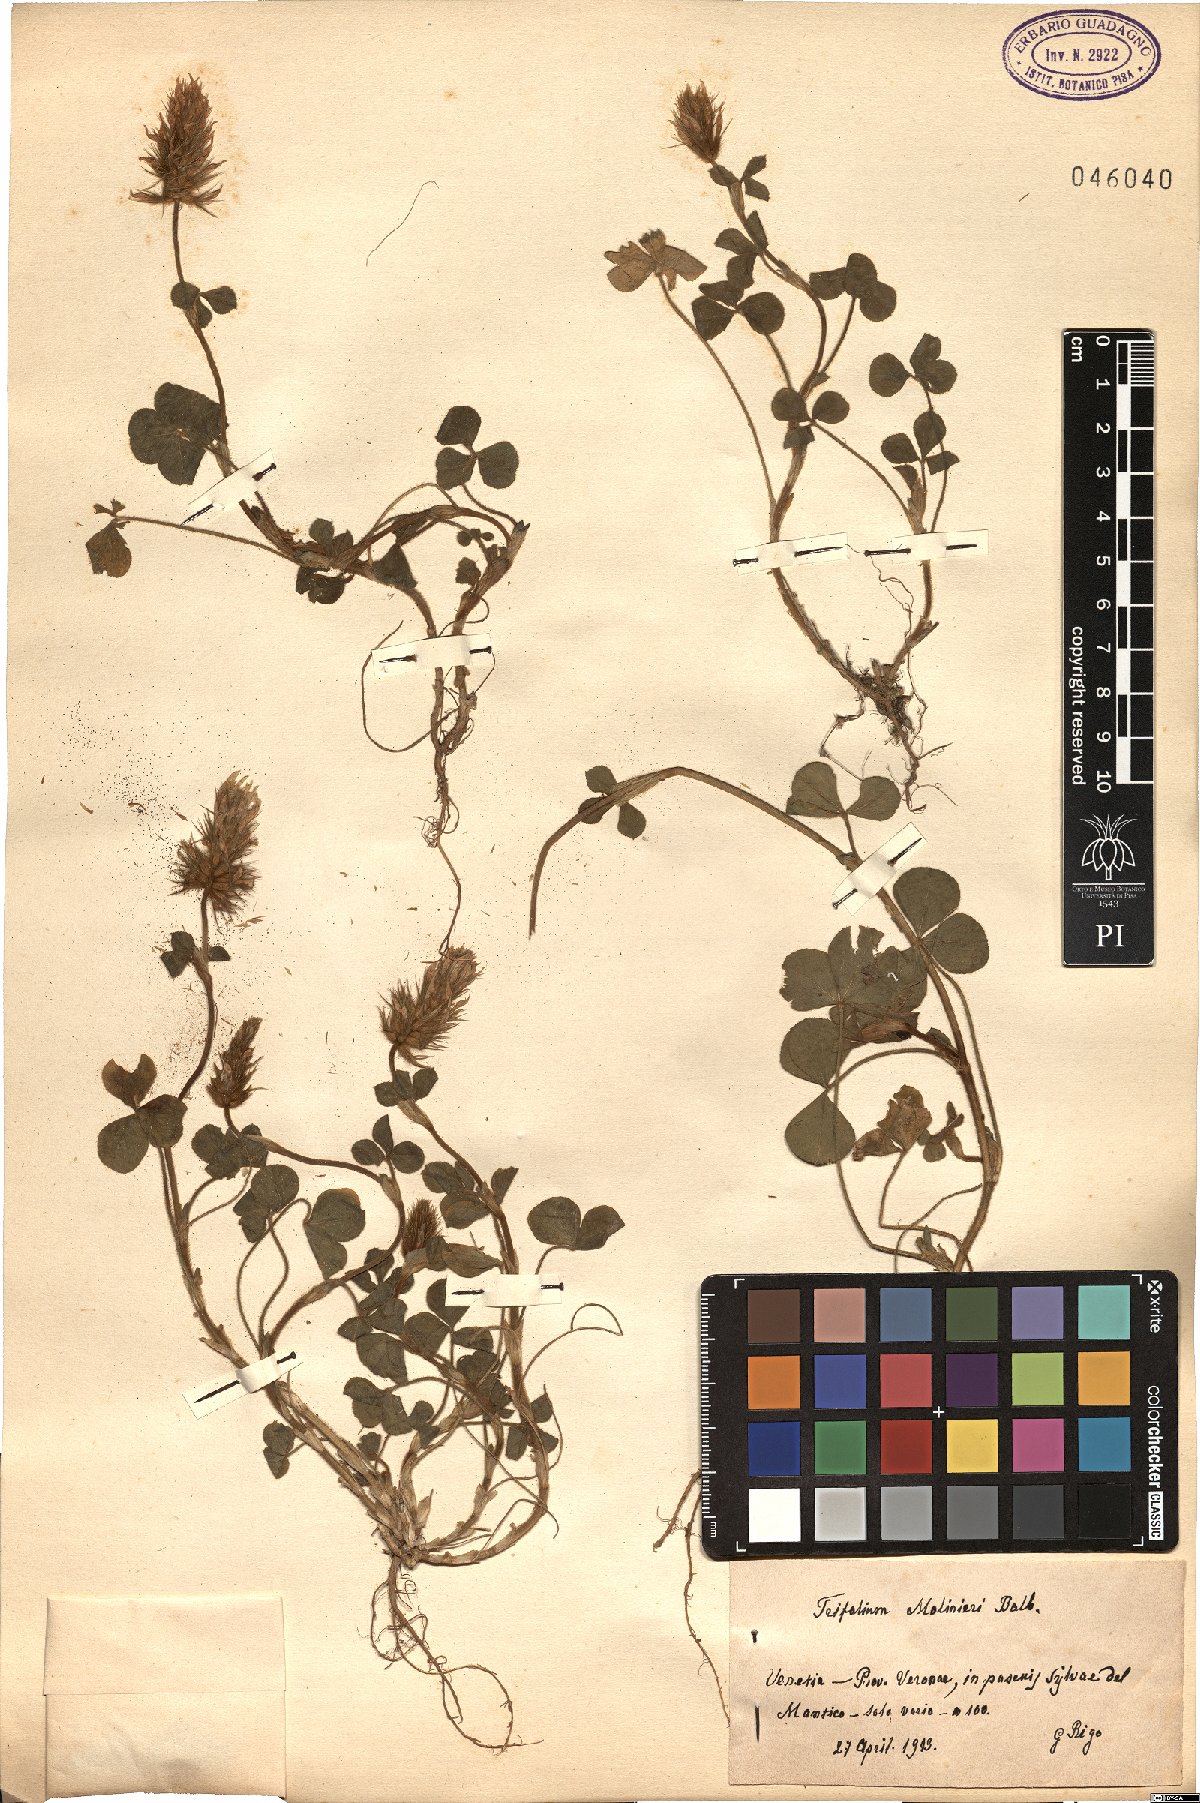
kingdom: Plantae
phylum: Tracheophyta
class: Magnoliopsida
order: Fabales
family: Fabaceae
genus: Trifolium
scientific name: Trifolium incarnatum
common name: Crimson clover
